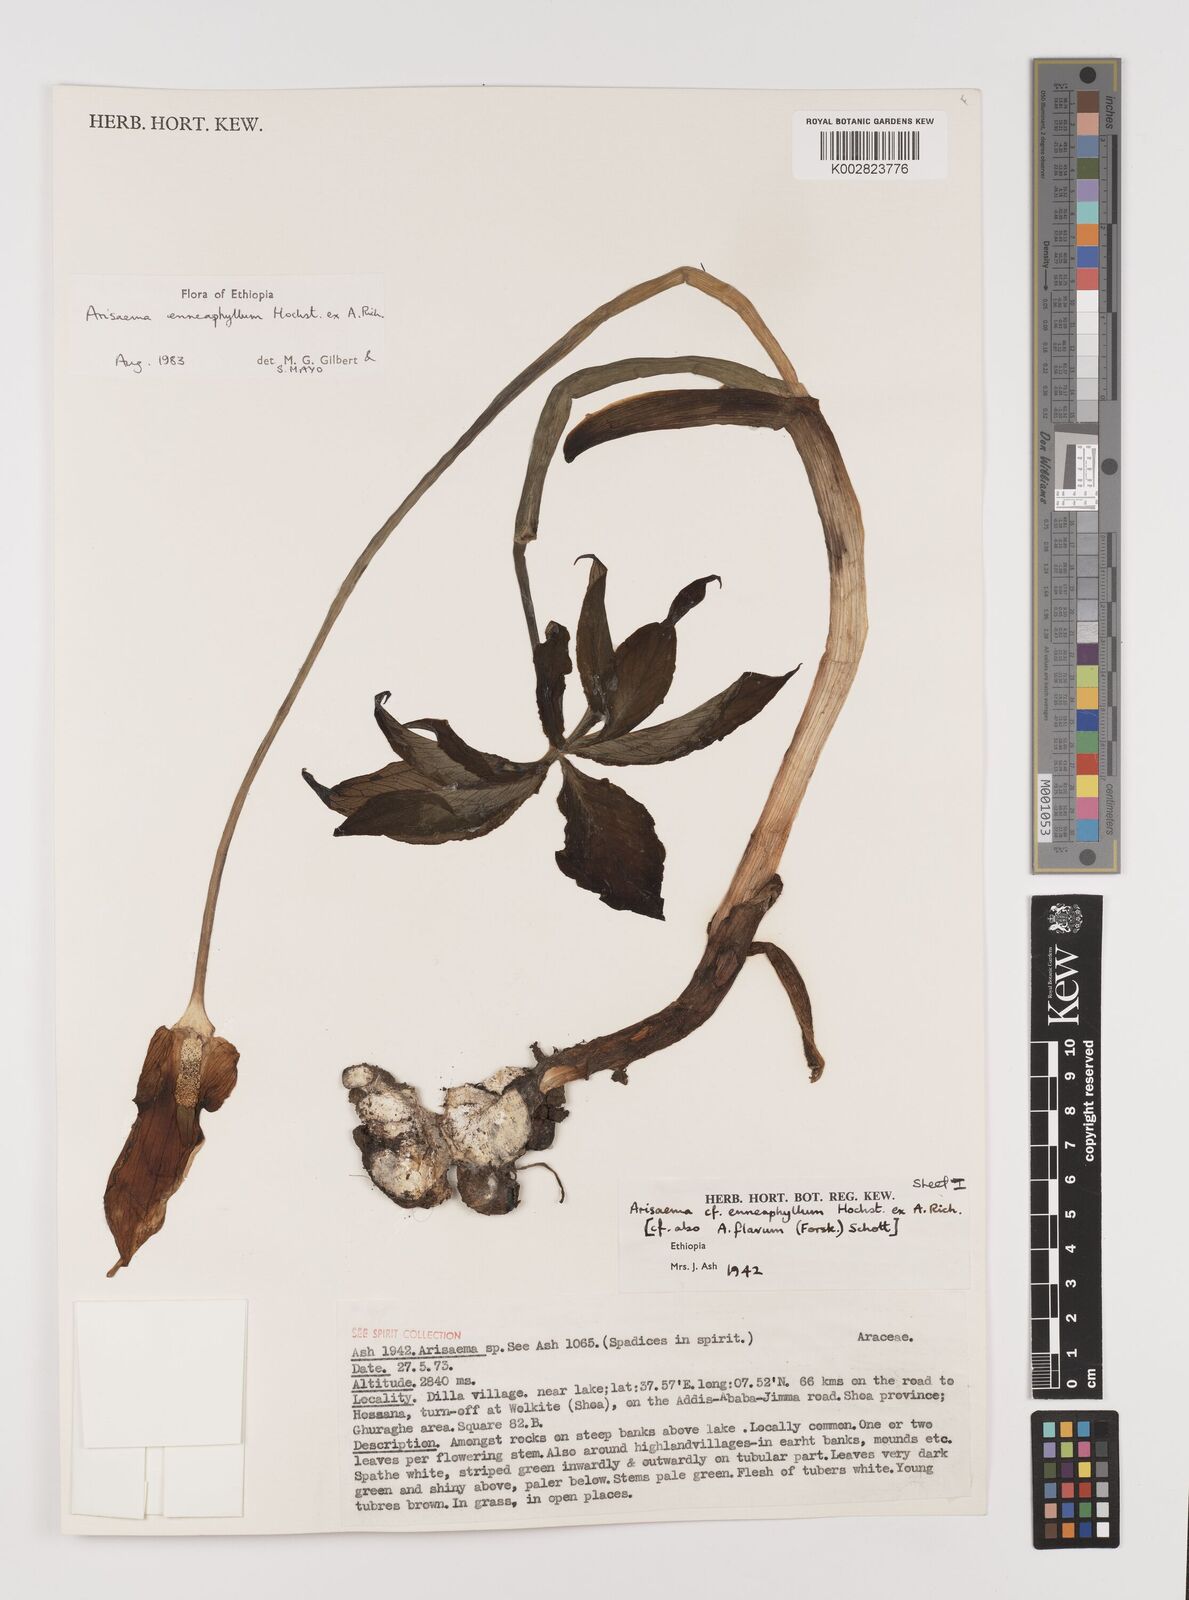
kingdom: Plantae
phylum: Tracheophyta
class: Liliopsida
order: Alismatales
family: Araceae
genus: Arisaema
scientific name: Arisaema enneaphyllum
